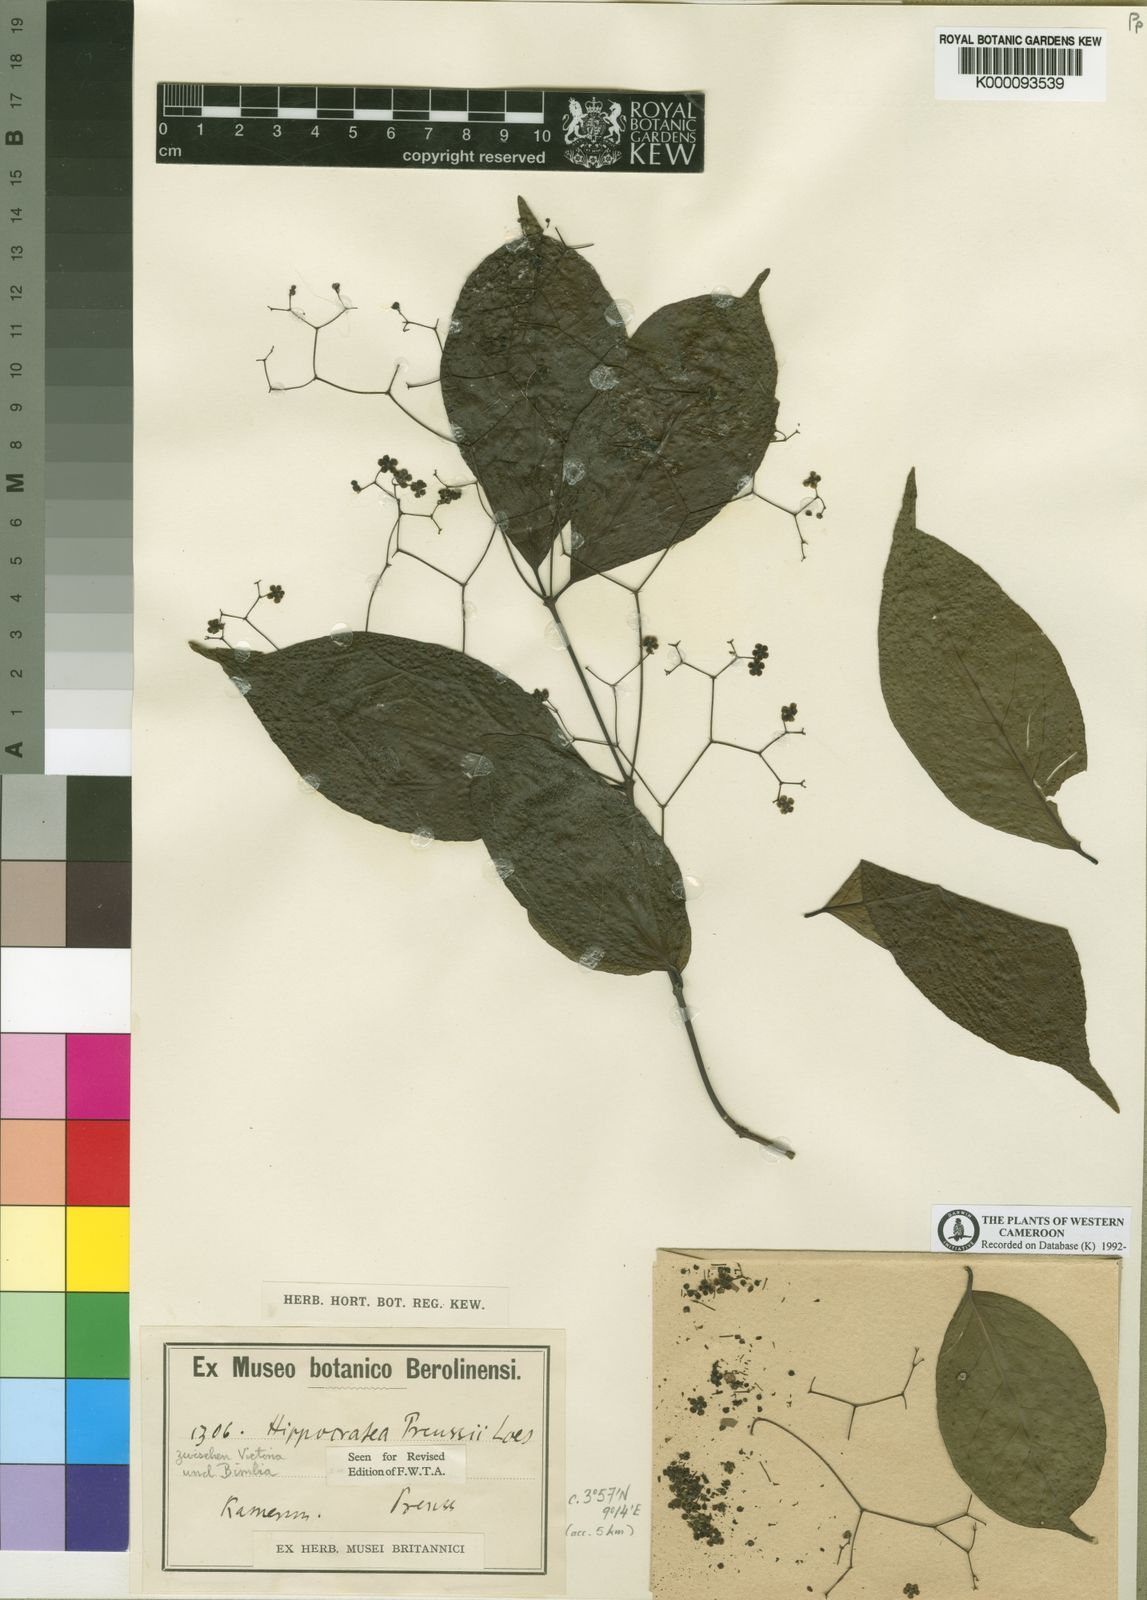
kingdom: Plantae
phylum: Tracheophyta
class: Magnoliopsida
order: Celastrales
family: Celastraceae
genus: Pristimera
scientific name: Pristimera
